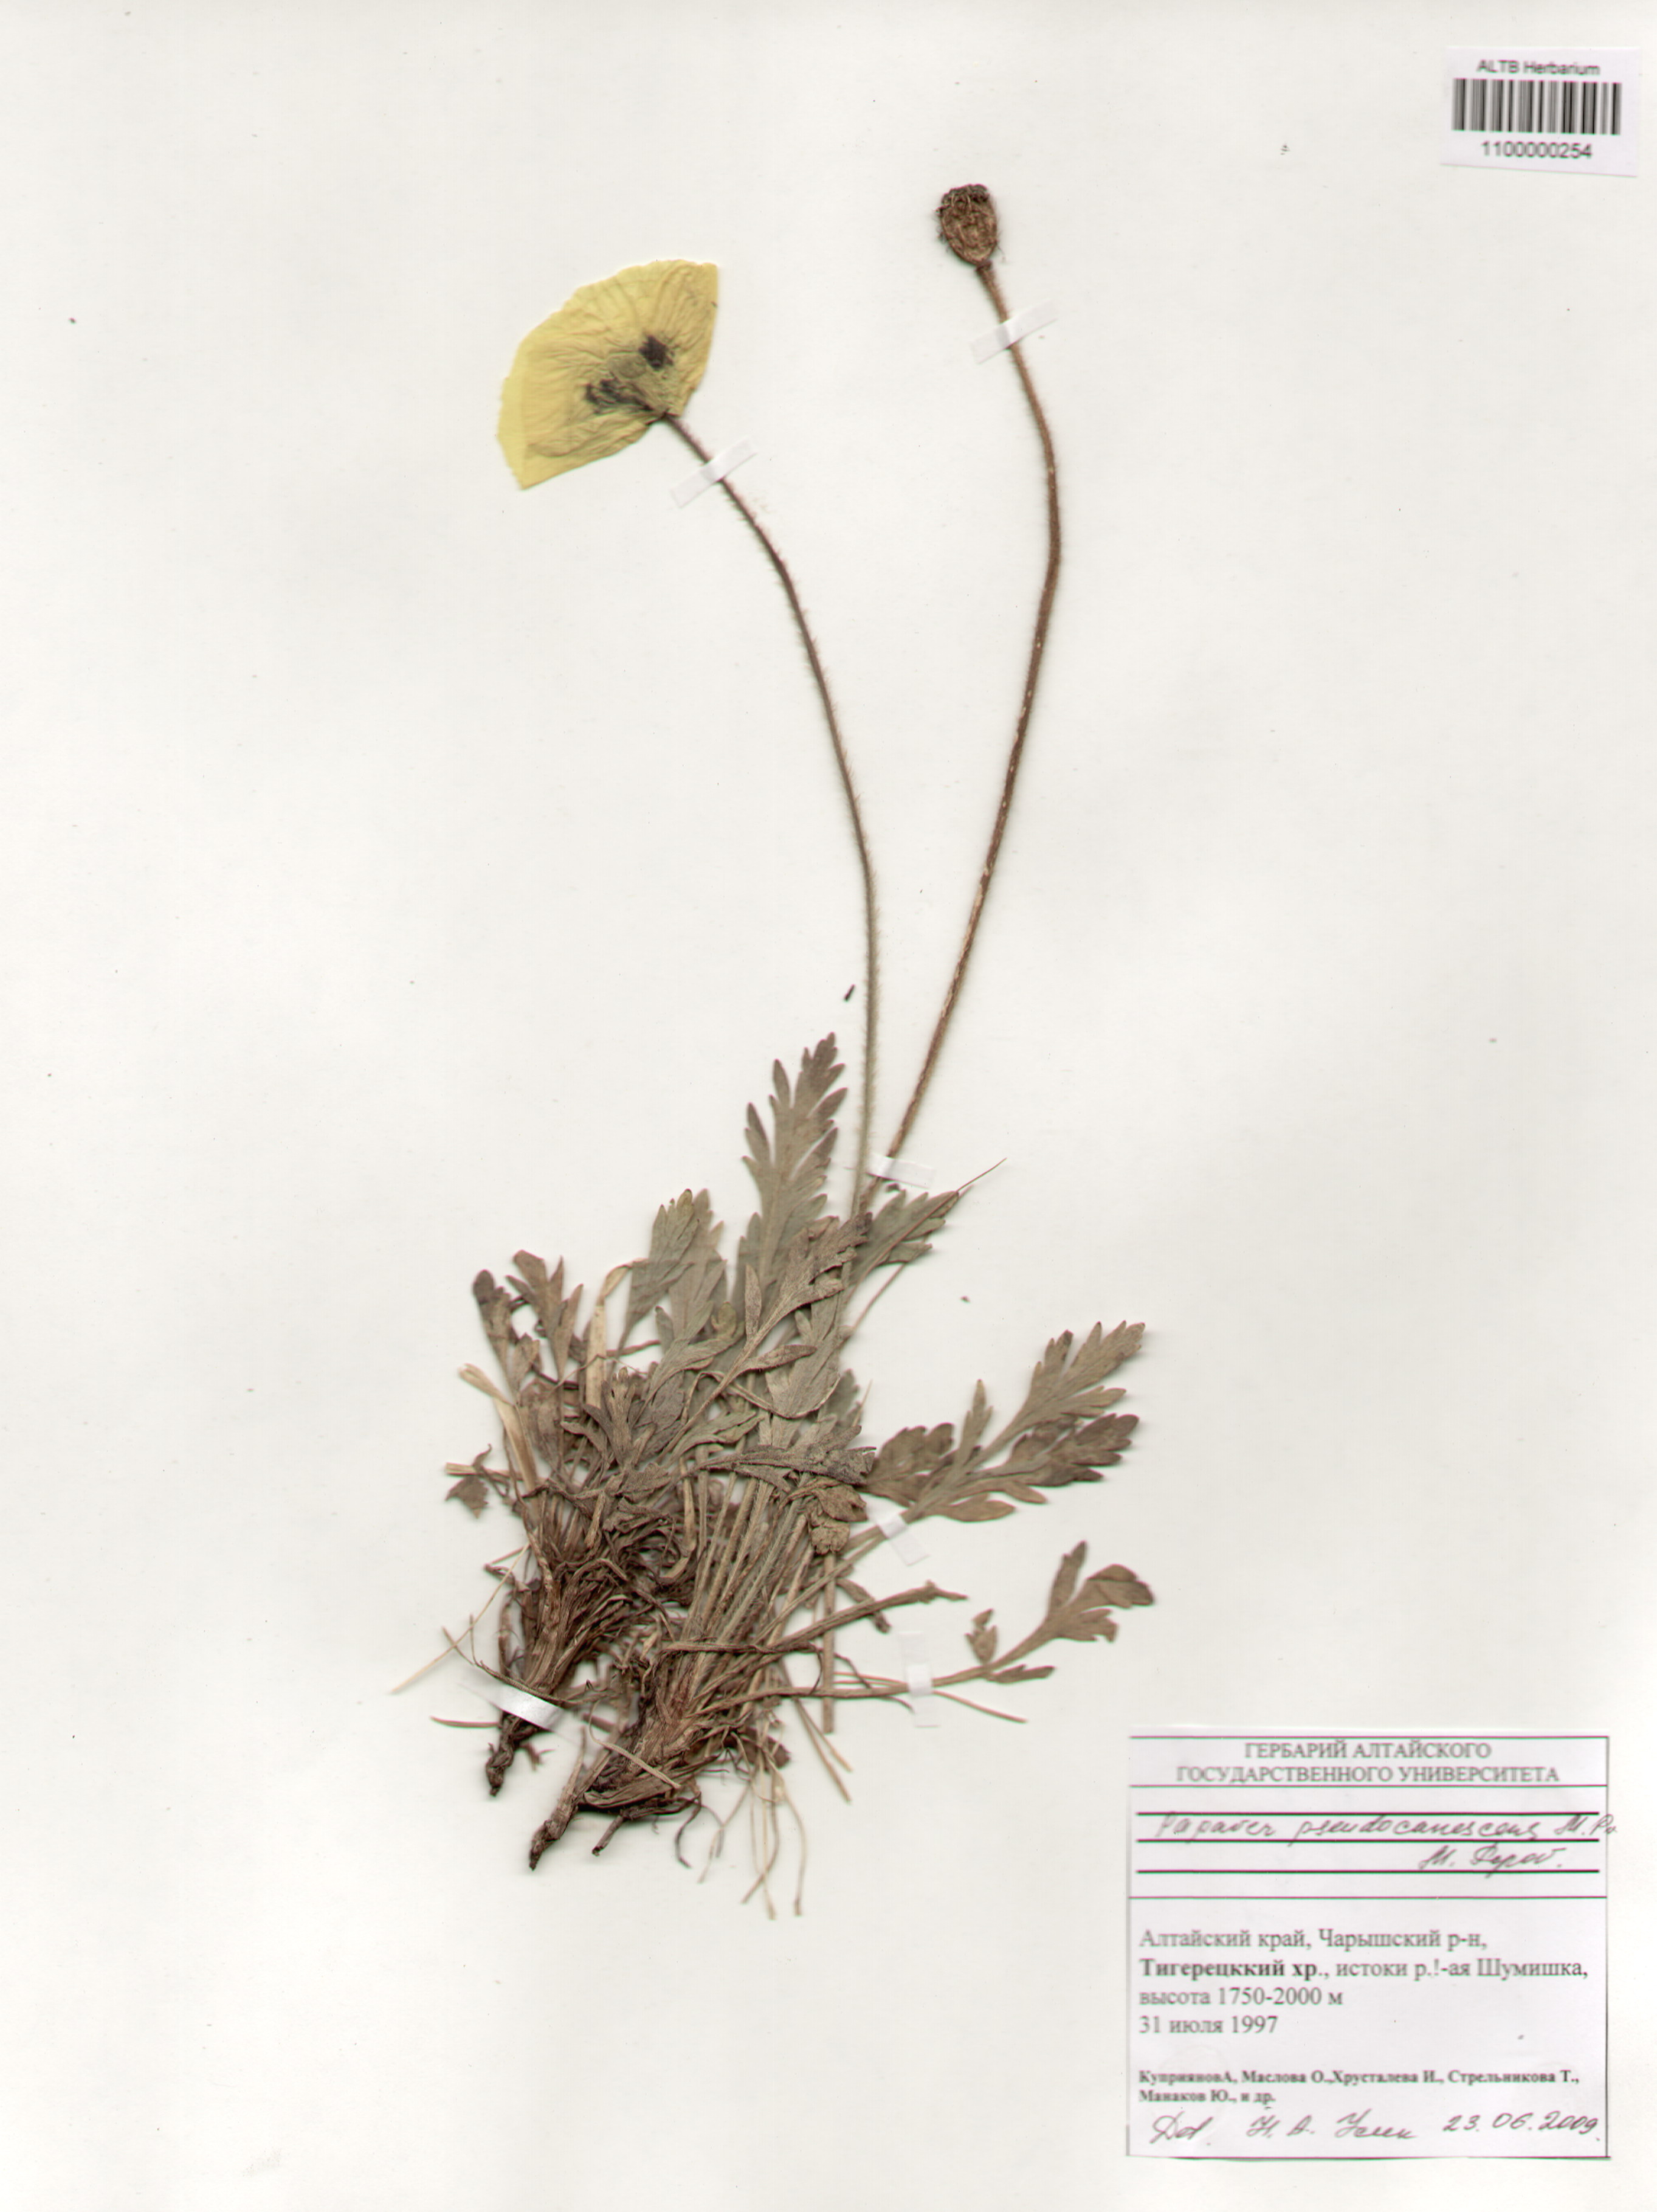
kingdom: Plantae
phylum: Tracheophyta
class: Magnoliopsida
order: Ranunculales
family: Papaveraceae
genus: Papaver
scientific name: Papaver canescens
